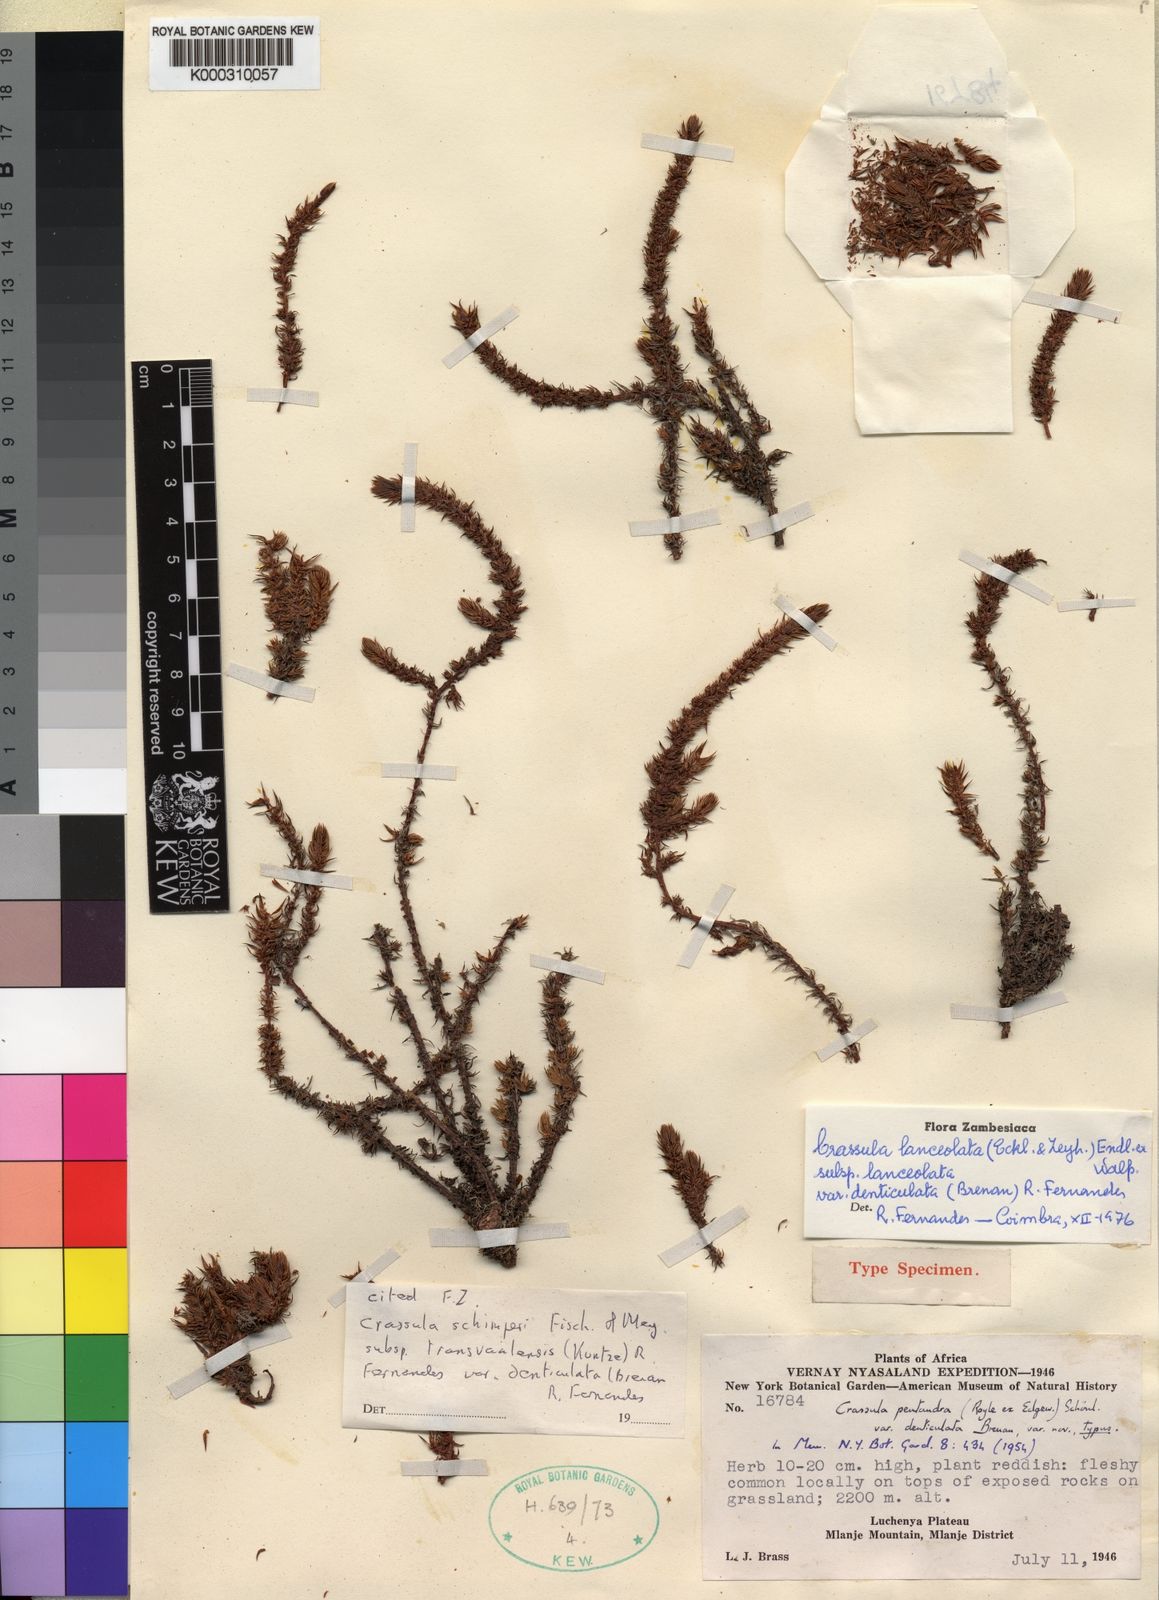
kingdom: Plantae
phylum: Tracheophyta
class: Magnoliopsida
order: Saxifragales
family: Crassulaceae
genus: Crassula
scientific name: Crassula lanceolata
